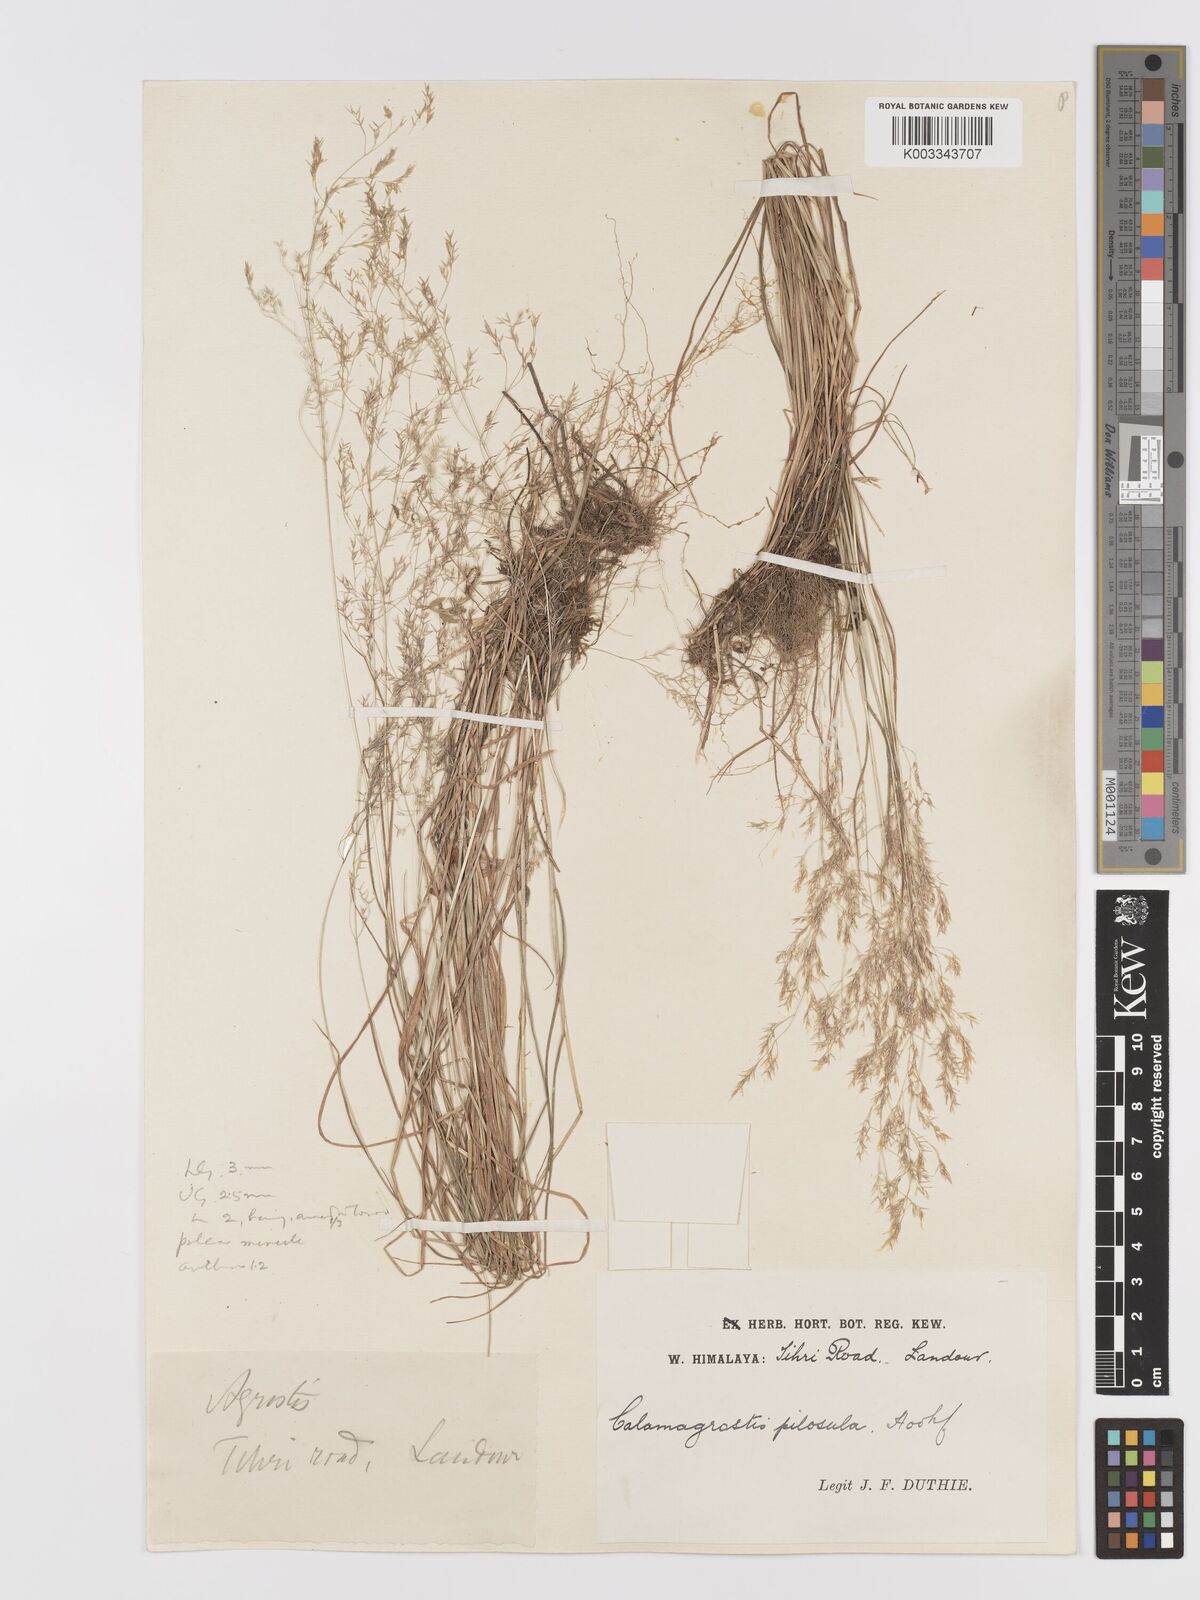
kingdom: Plantae
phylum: Tracheophyta
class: Liliopsida
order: Poales
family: Poaceae
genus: Agrostis
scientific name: Agrostis pilosula
